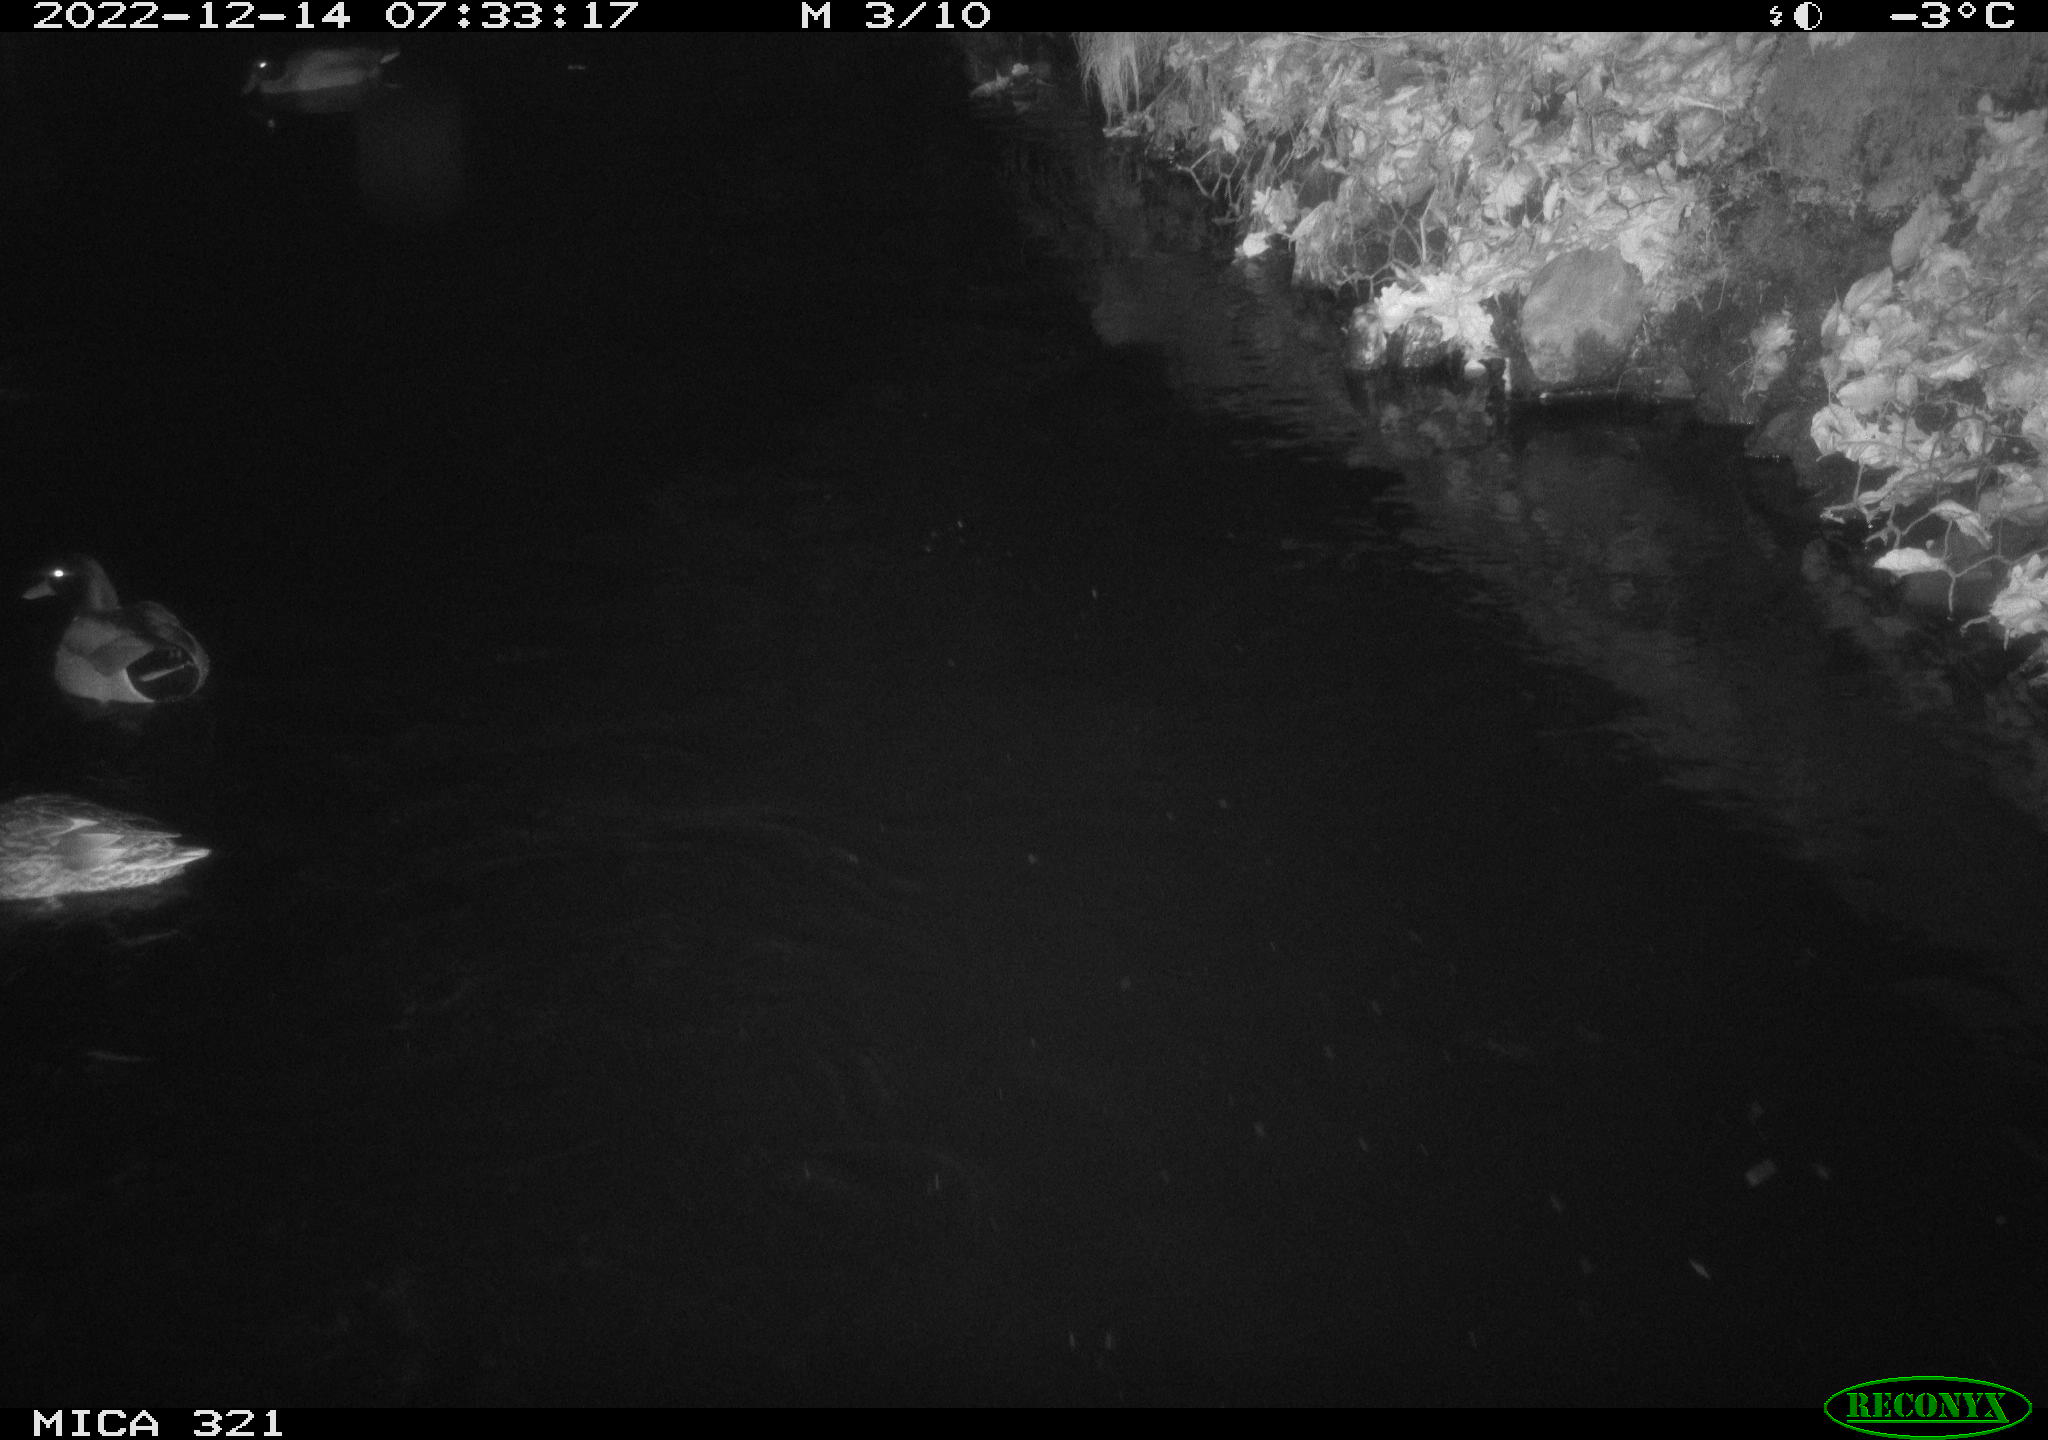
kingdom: Animalia
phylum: Chordata
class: Aves
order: Anseriformes
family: Anatidae
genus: Anas
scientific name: Anas
